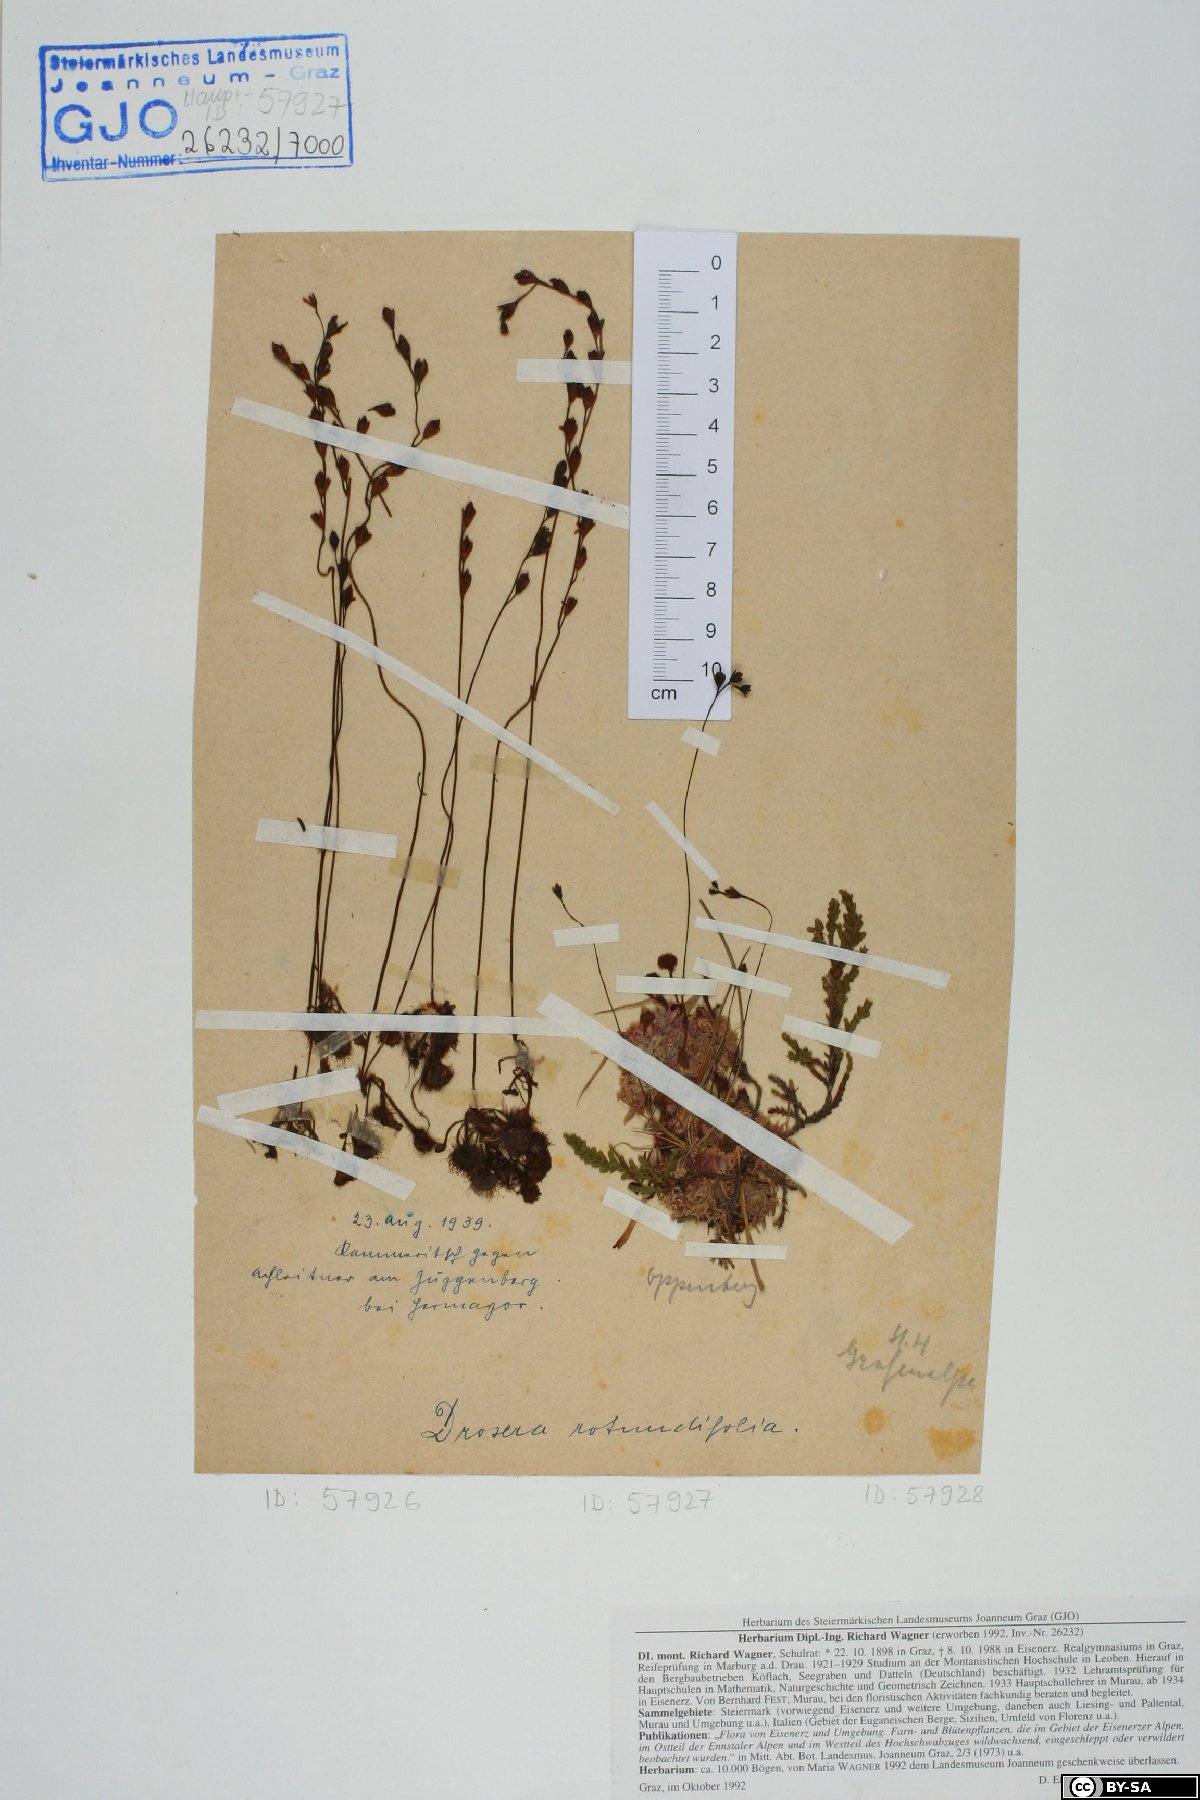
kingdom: Plantae
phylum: Tracheophyta
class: Magnoliopsida
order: Caryophyllales
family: Droseraceae
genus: Drosera
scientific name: Drosera rotundifolia
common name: Round-leaved sundew
